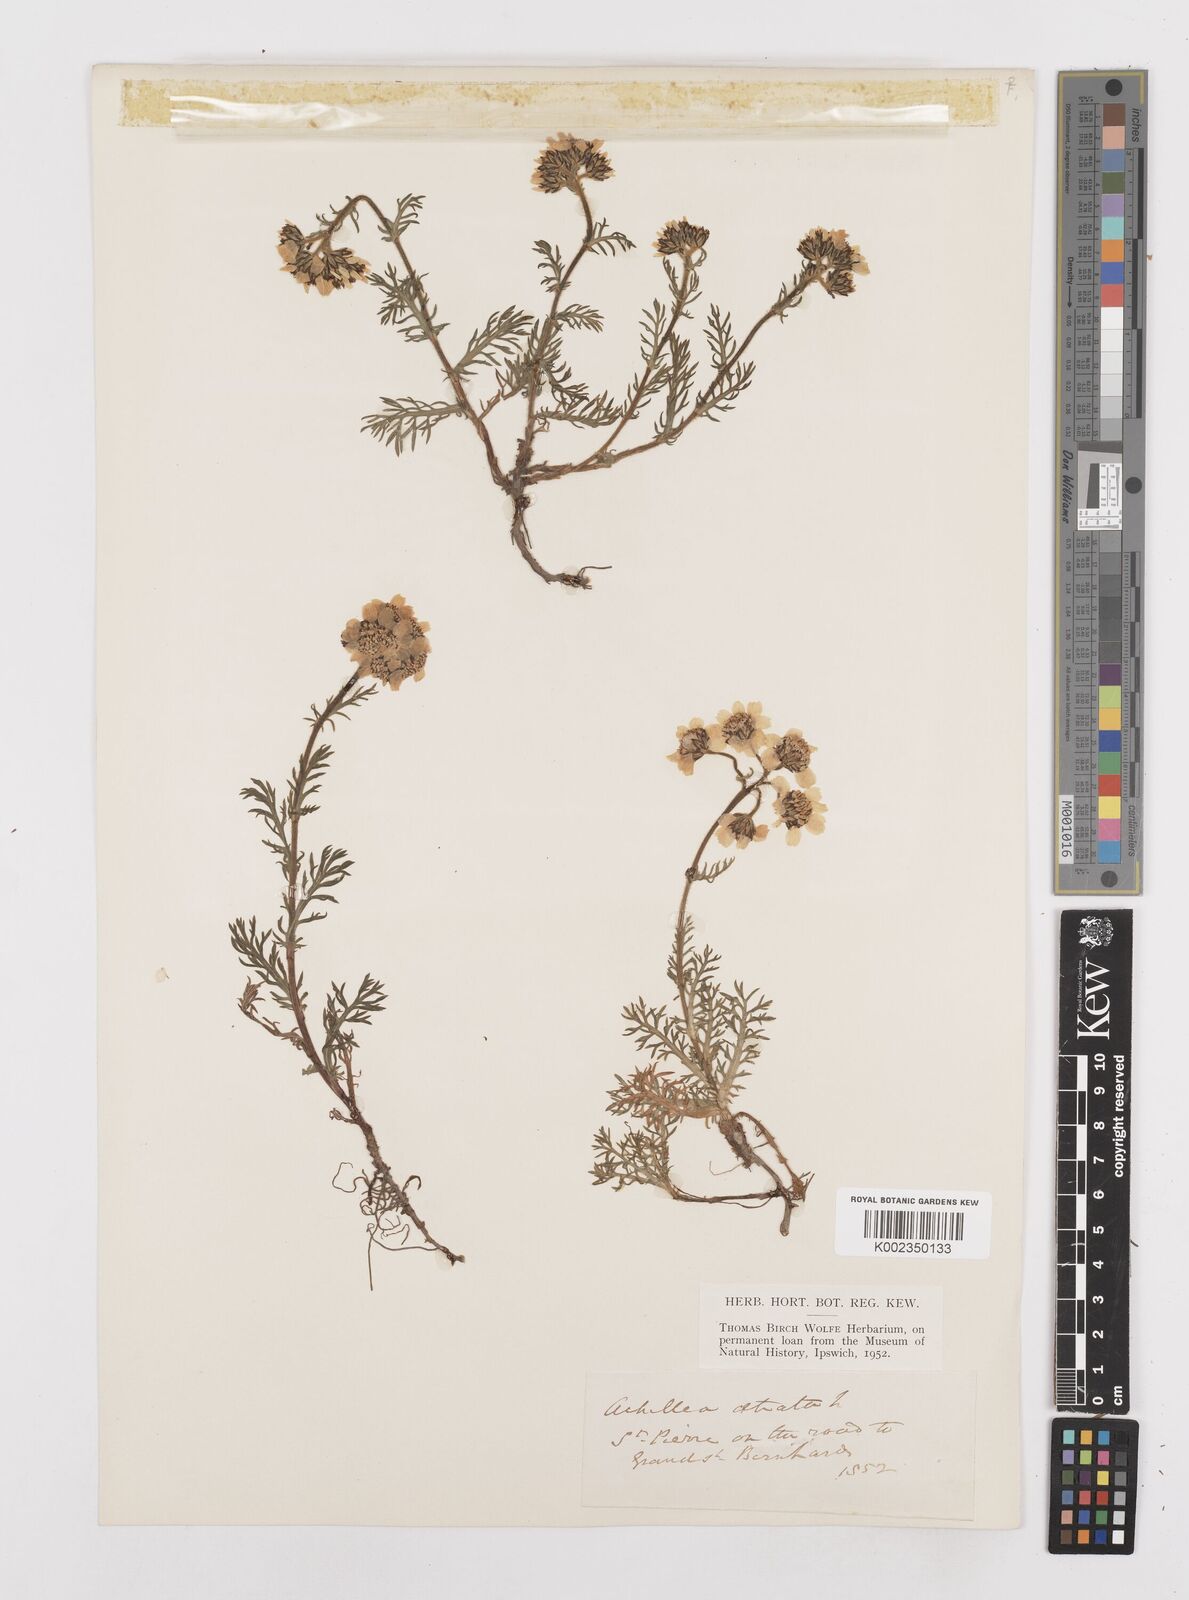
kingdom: Plantae
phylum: Tracheophyta
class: Magnoliopsida
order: Asterales
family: Asteraceae
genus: Achillea
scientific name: Achillea atrata
